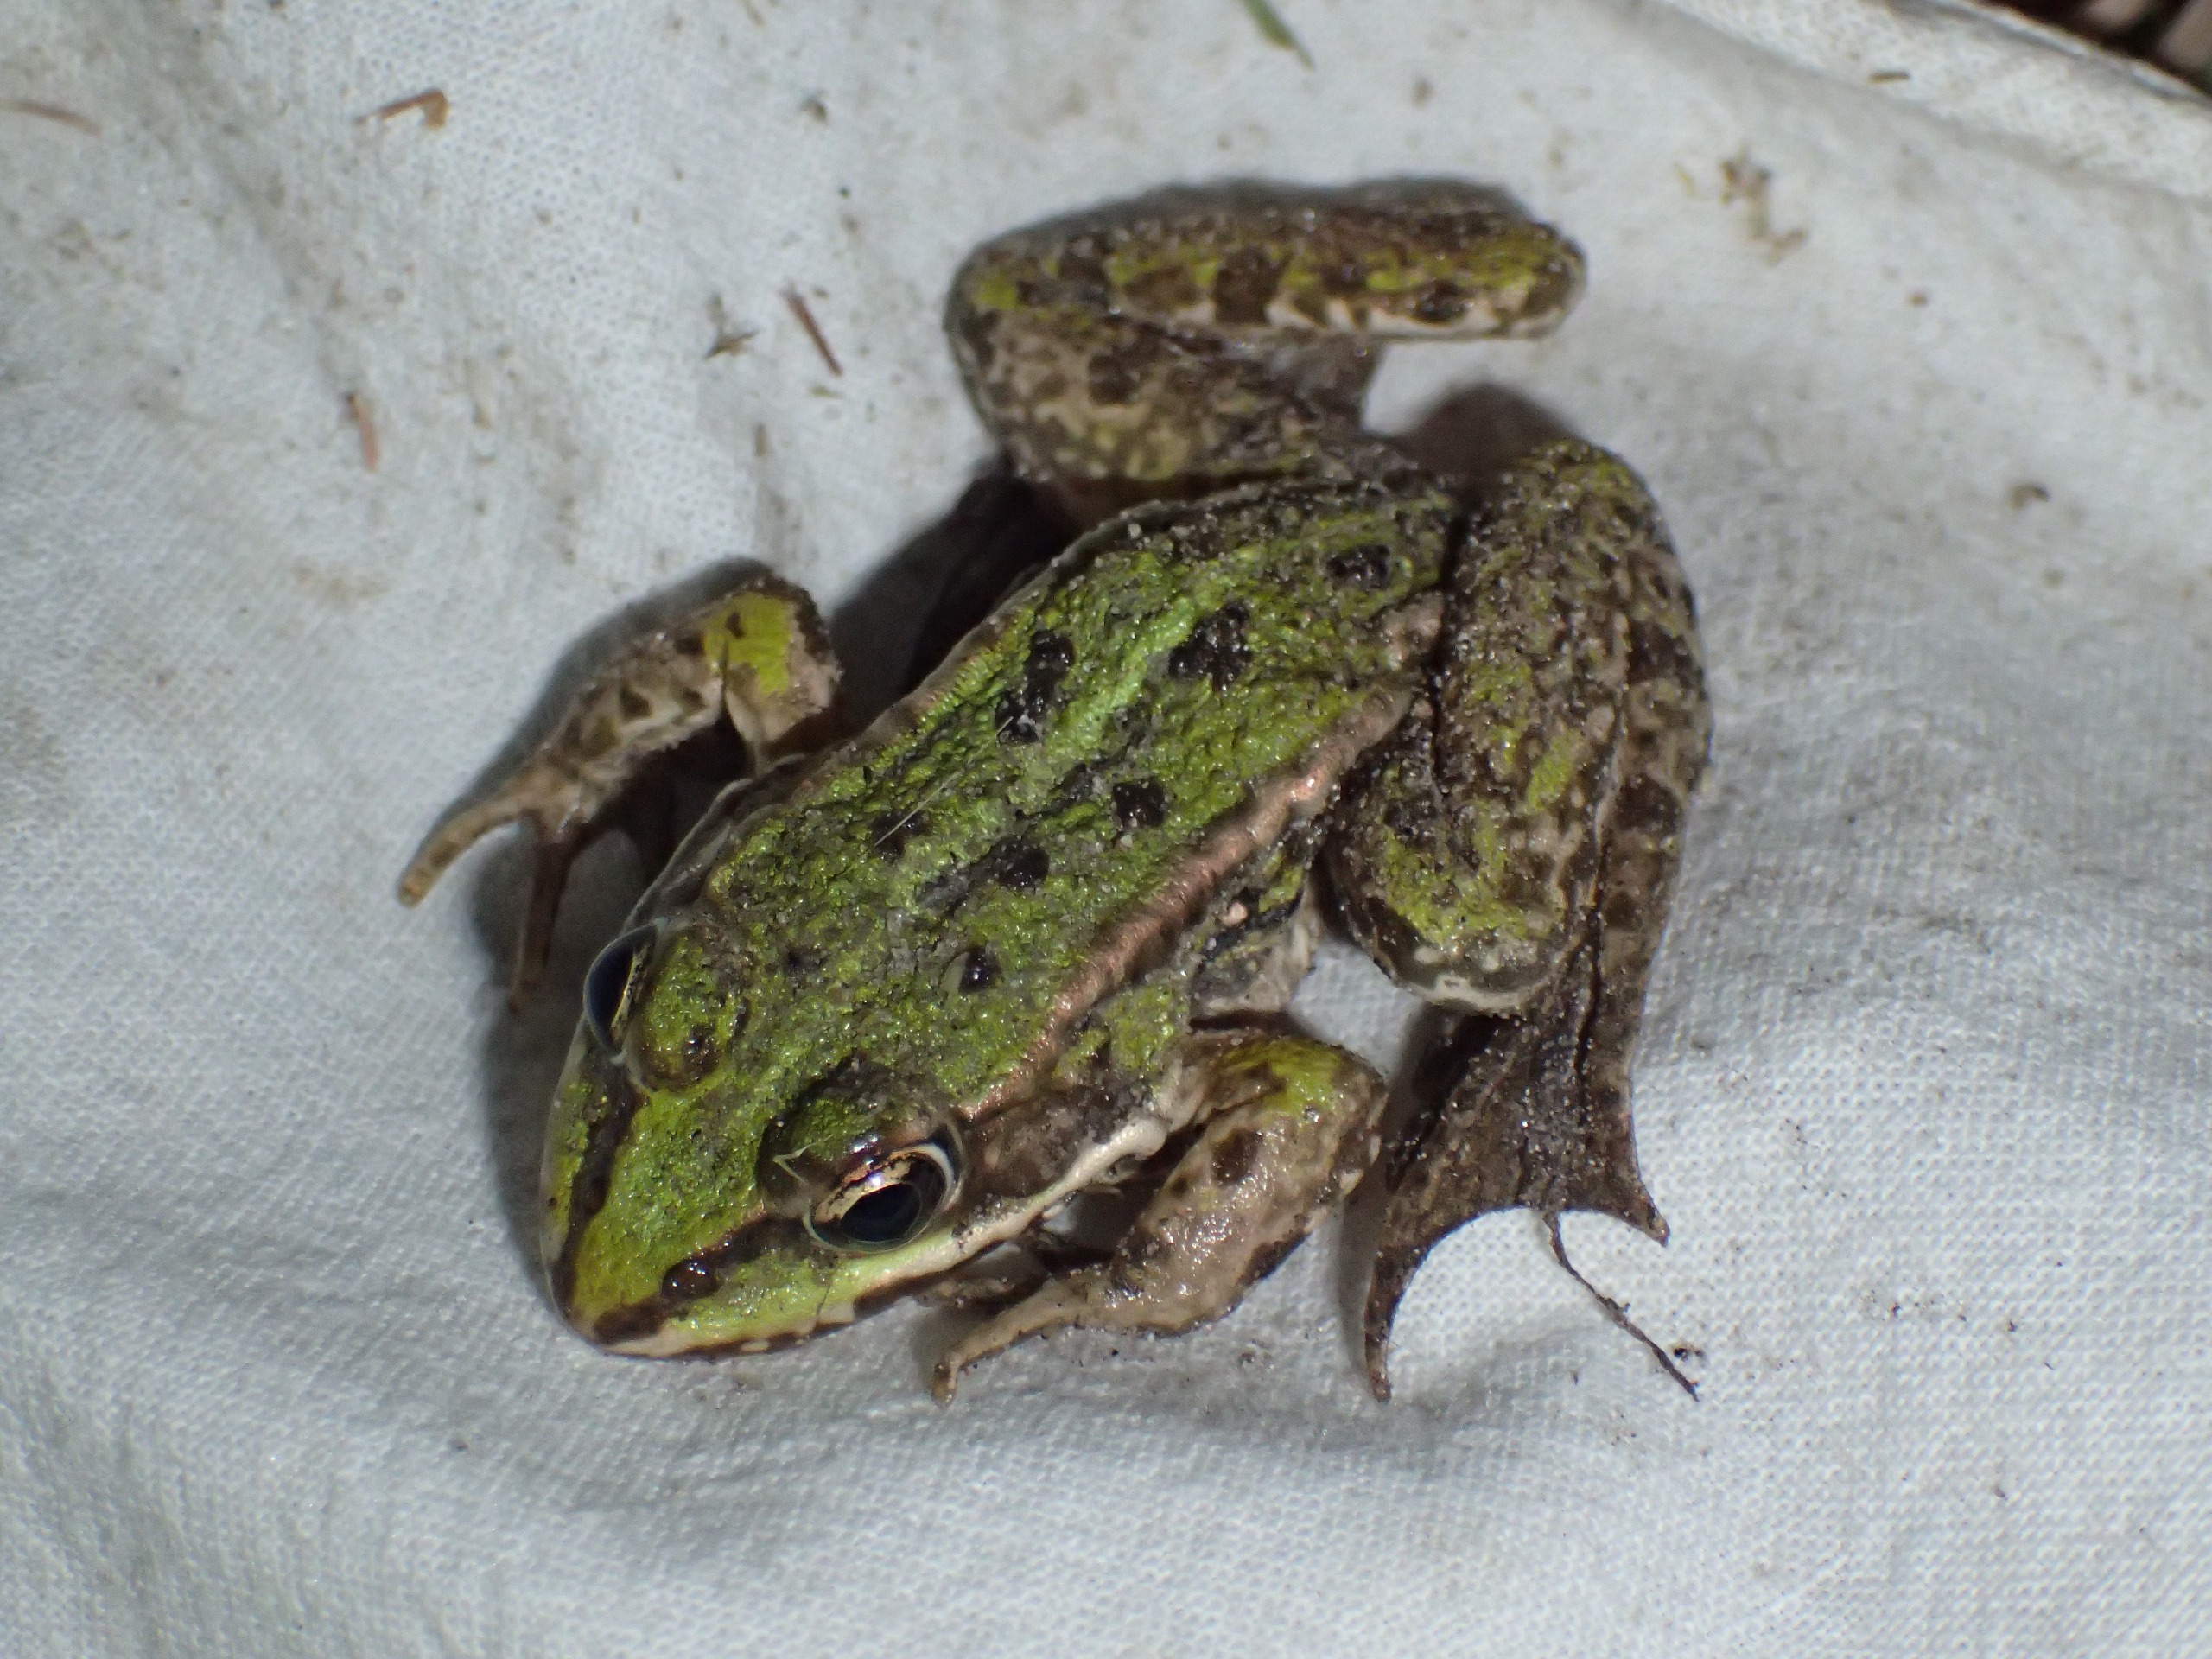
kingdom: Animalia
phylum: Chordata
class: Amphibia
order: Anura
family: Ranidae
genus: Pelophylax
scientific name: Pelophylax lessonae
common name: Grøn frø
